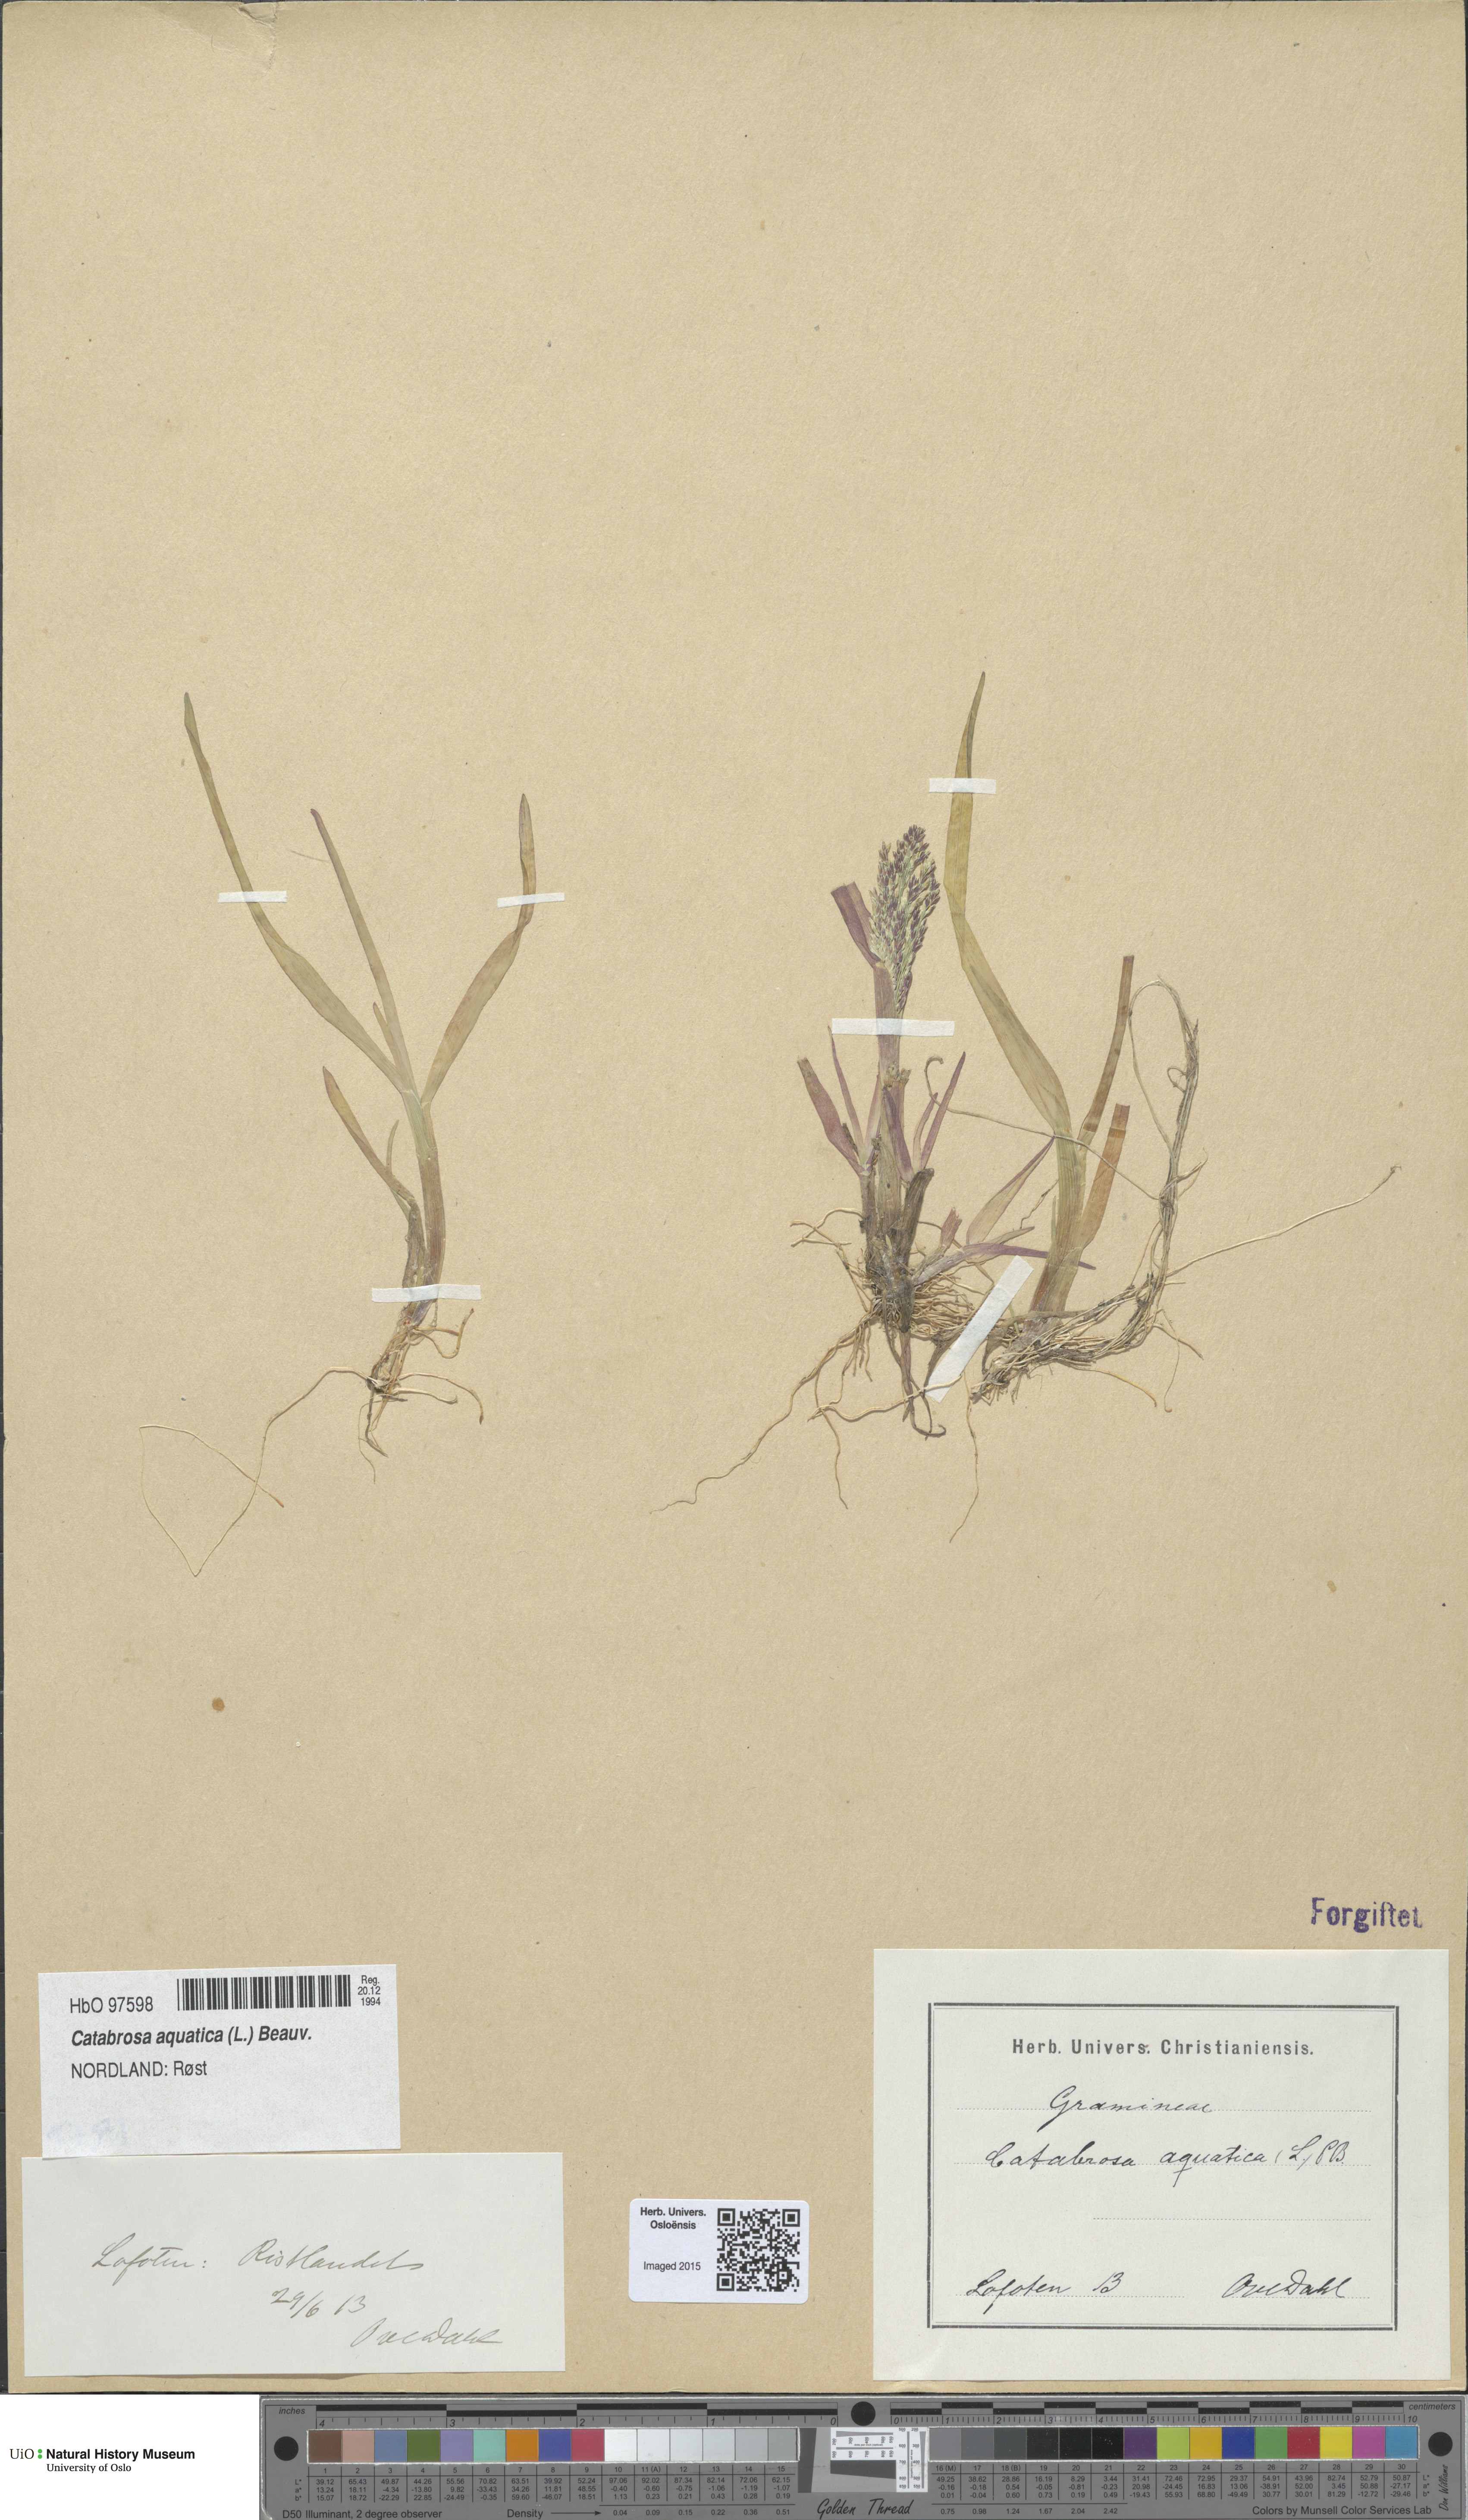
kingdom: Plantae
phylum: Tracheophyta
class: Liliopsida
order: Poales
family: Poaceae
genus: Catabrosa
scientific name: Catabrosa aquatica
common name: Whorl-grass
